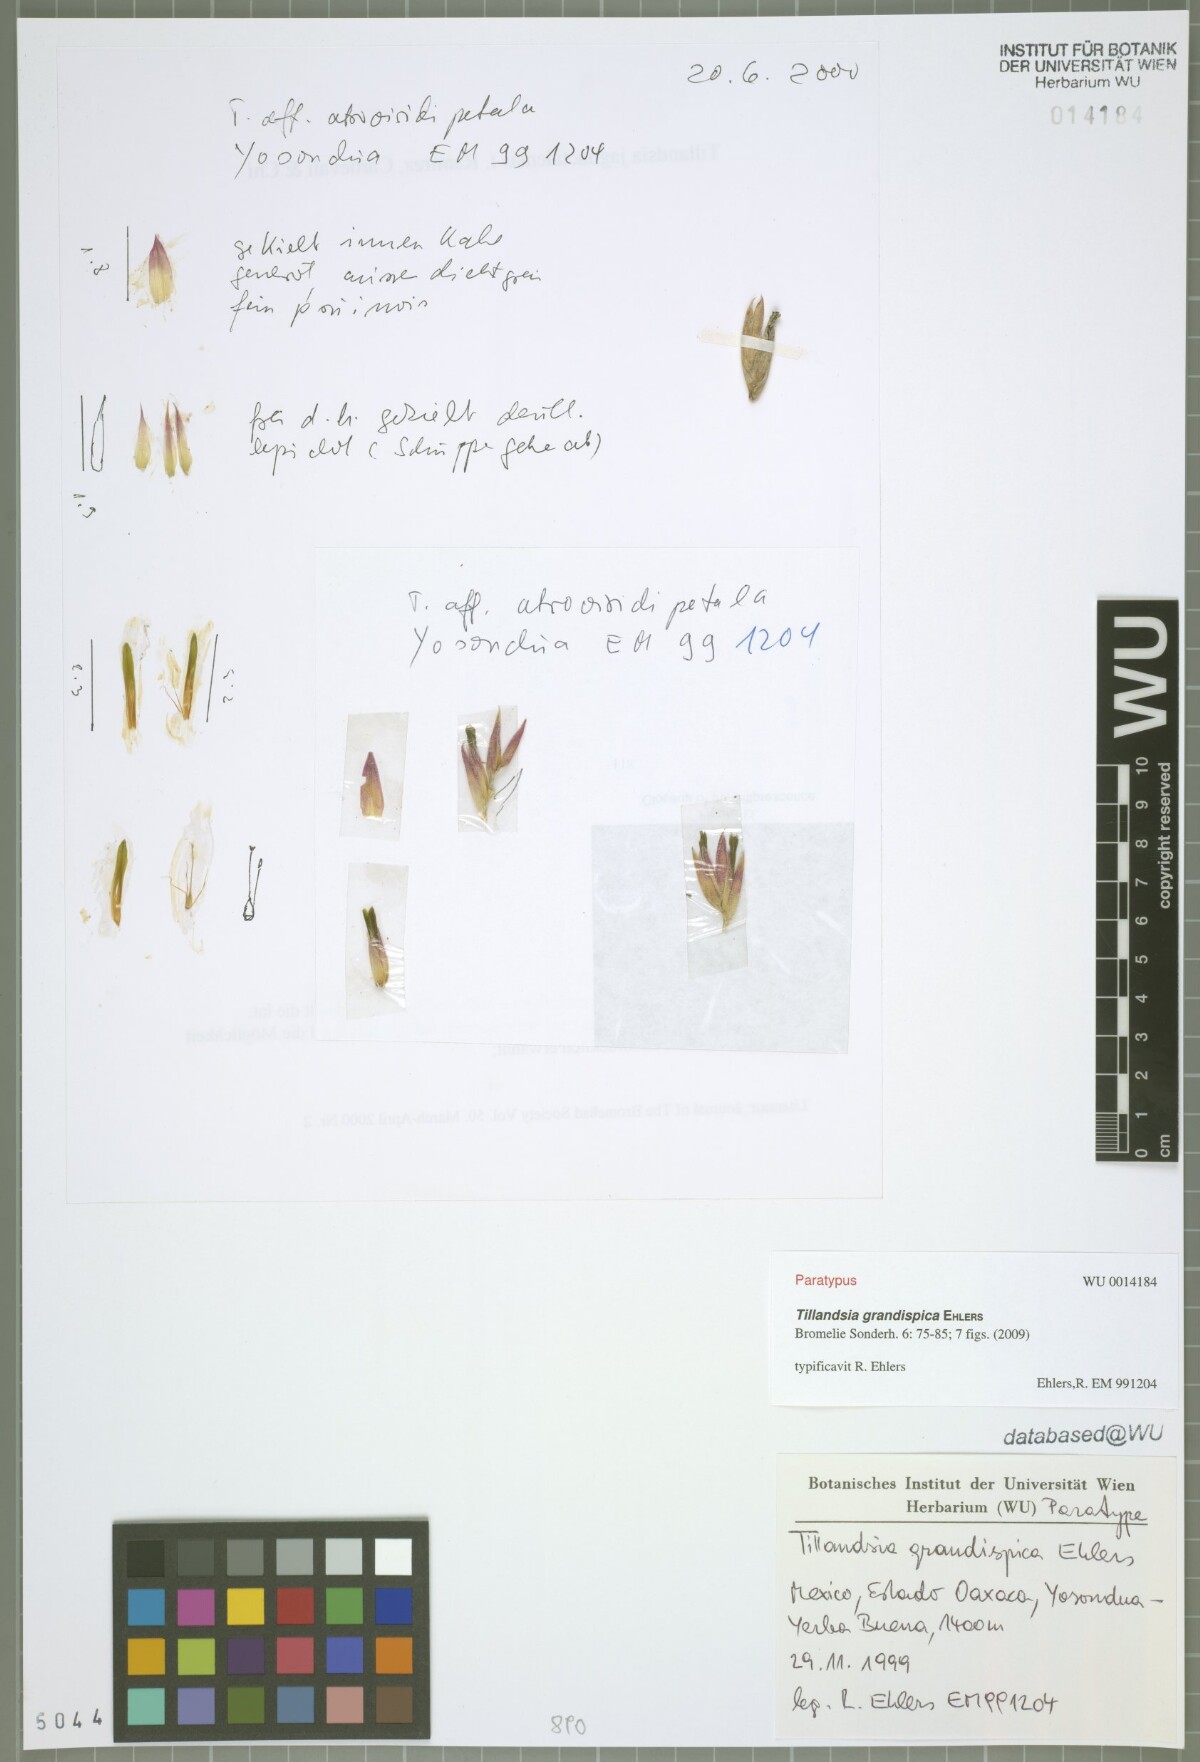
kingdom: Plantae
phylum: Tracheophyta
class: Liliopsida
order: Poales
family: Bromeliaceae
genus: Tillandsia
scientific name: Tillandsia grandispica
